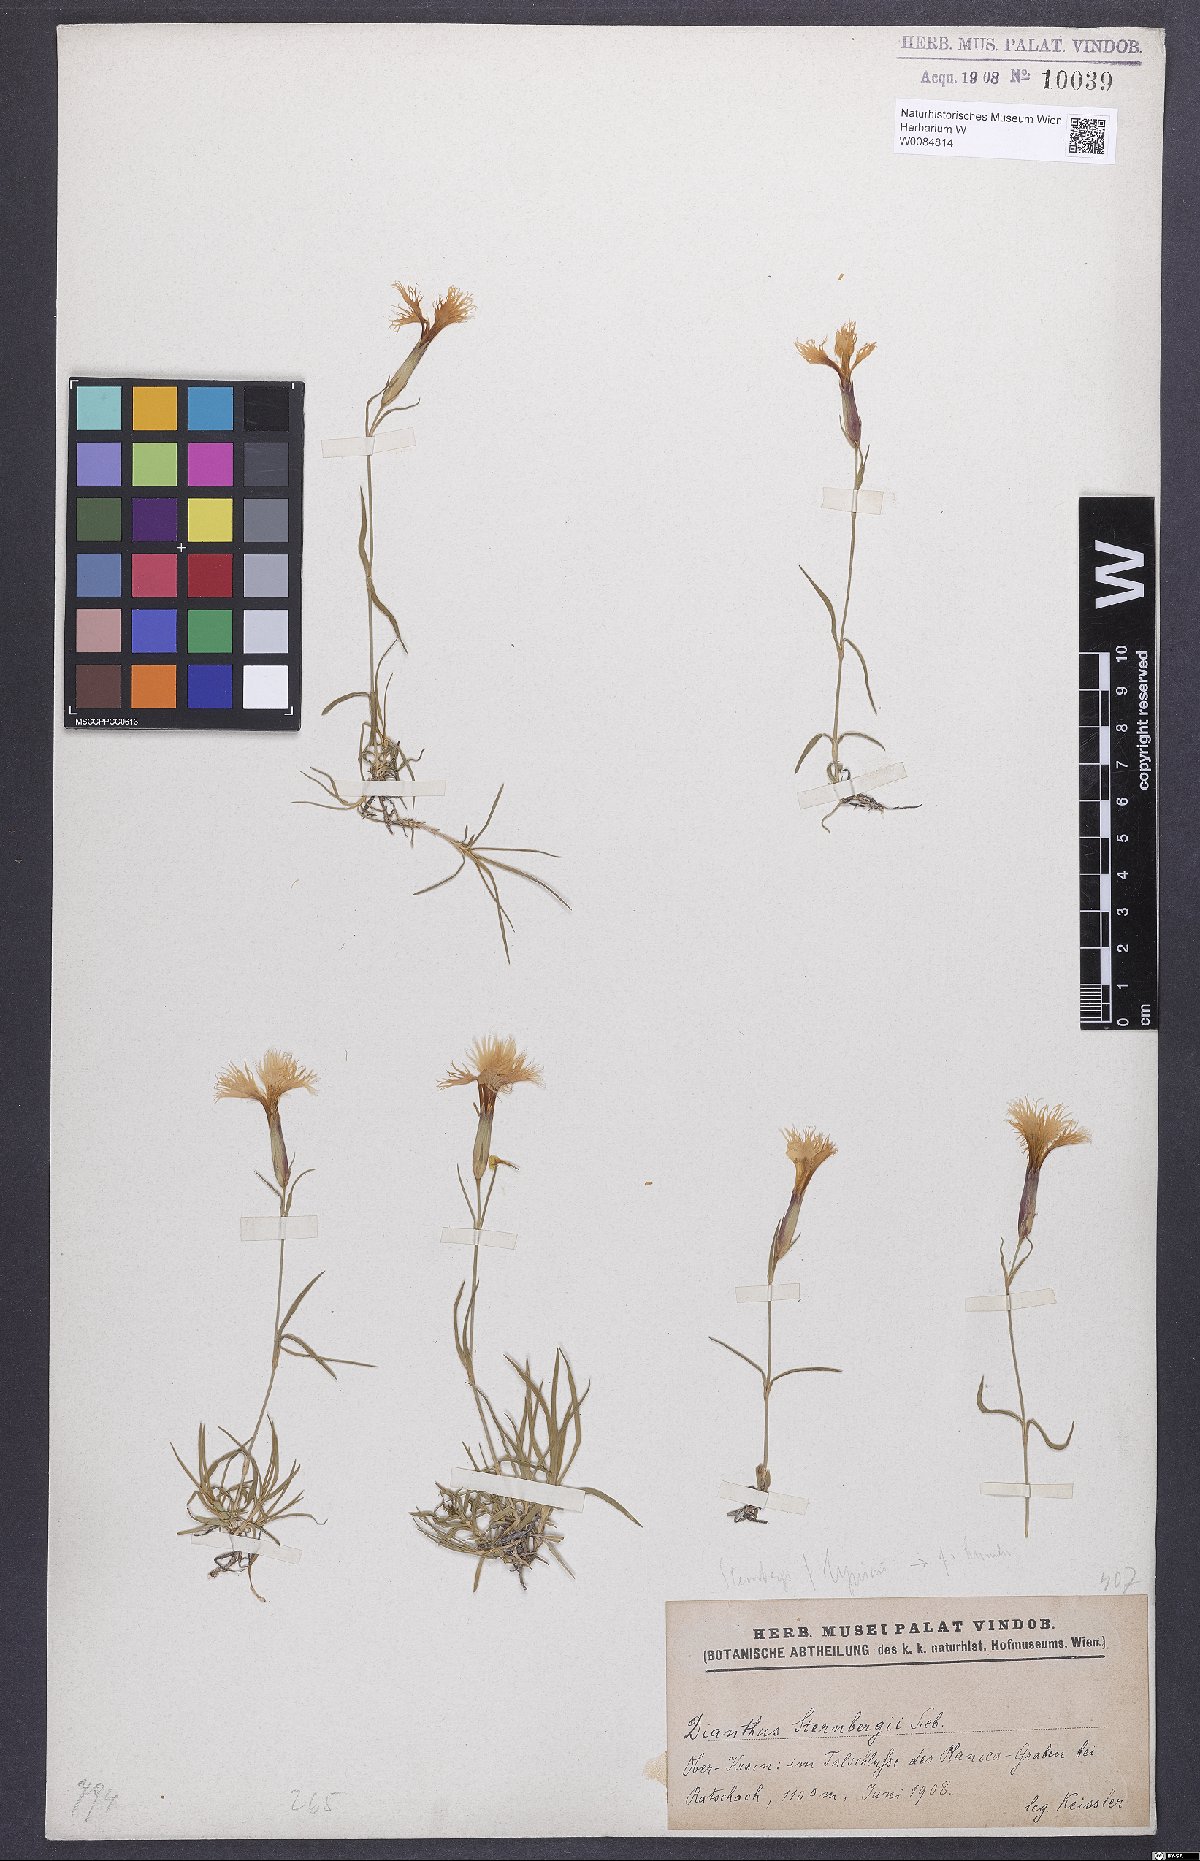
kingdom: Plantae
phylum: Tracheophyta
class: Magnoliopsida
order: Caryophyllales
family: Caryophyllaceae
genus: Dianthus
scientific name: Dianthus monspessulanus
